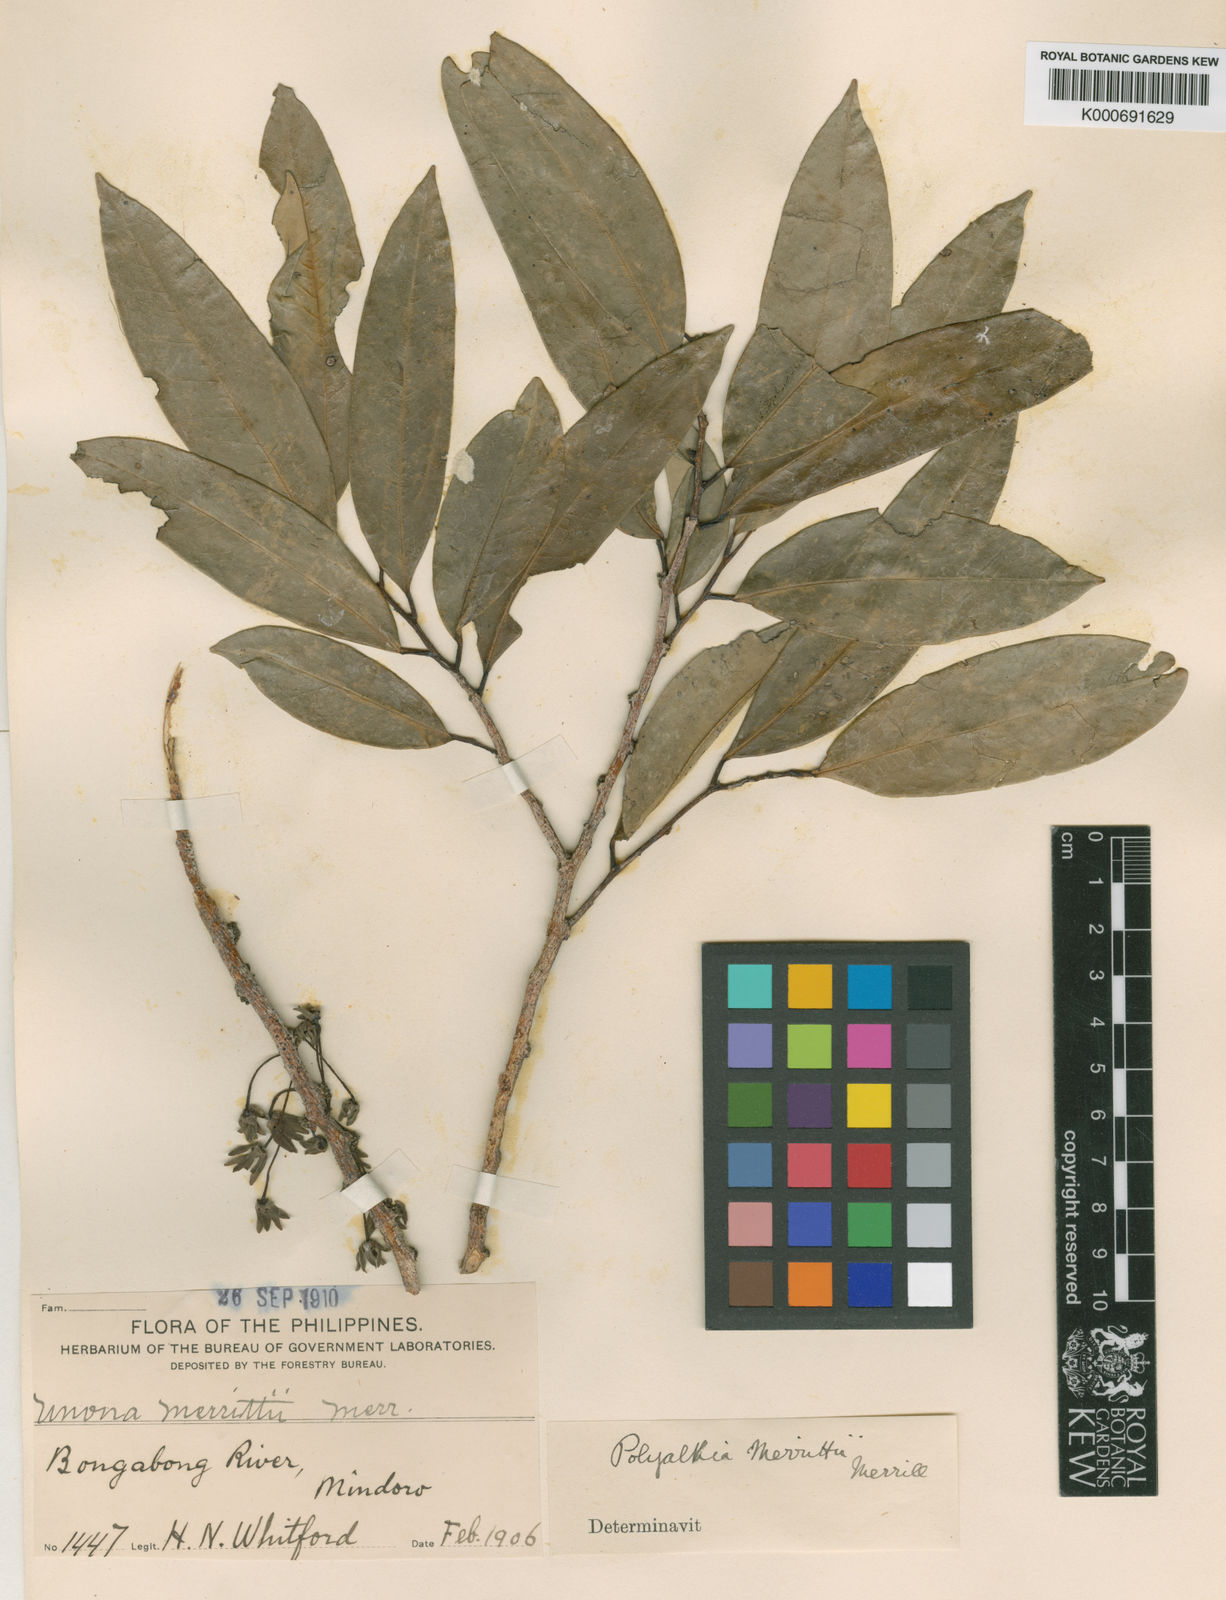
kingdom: Plantae
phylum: Tracheophyta
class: Magnoliopsida
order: Magnoliales
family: Annonaceae
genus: Maasia
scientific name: Maasia glauca
